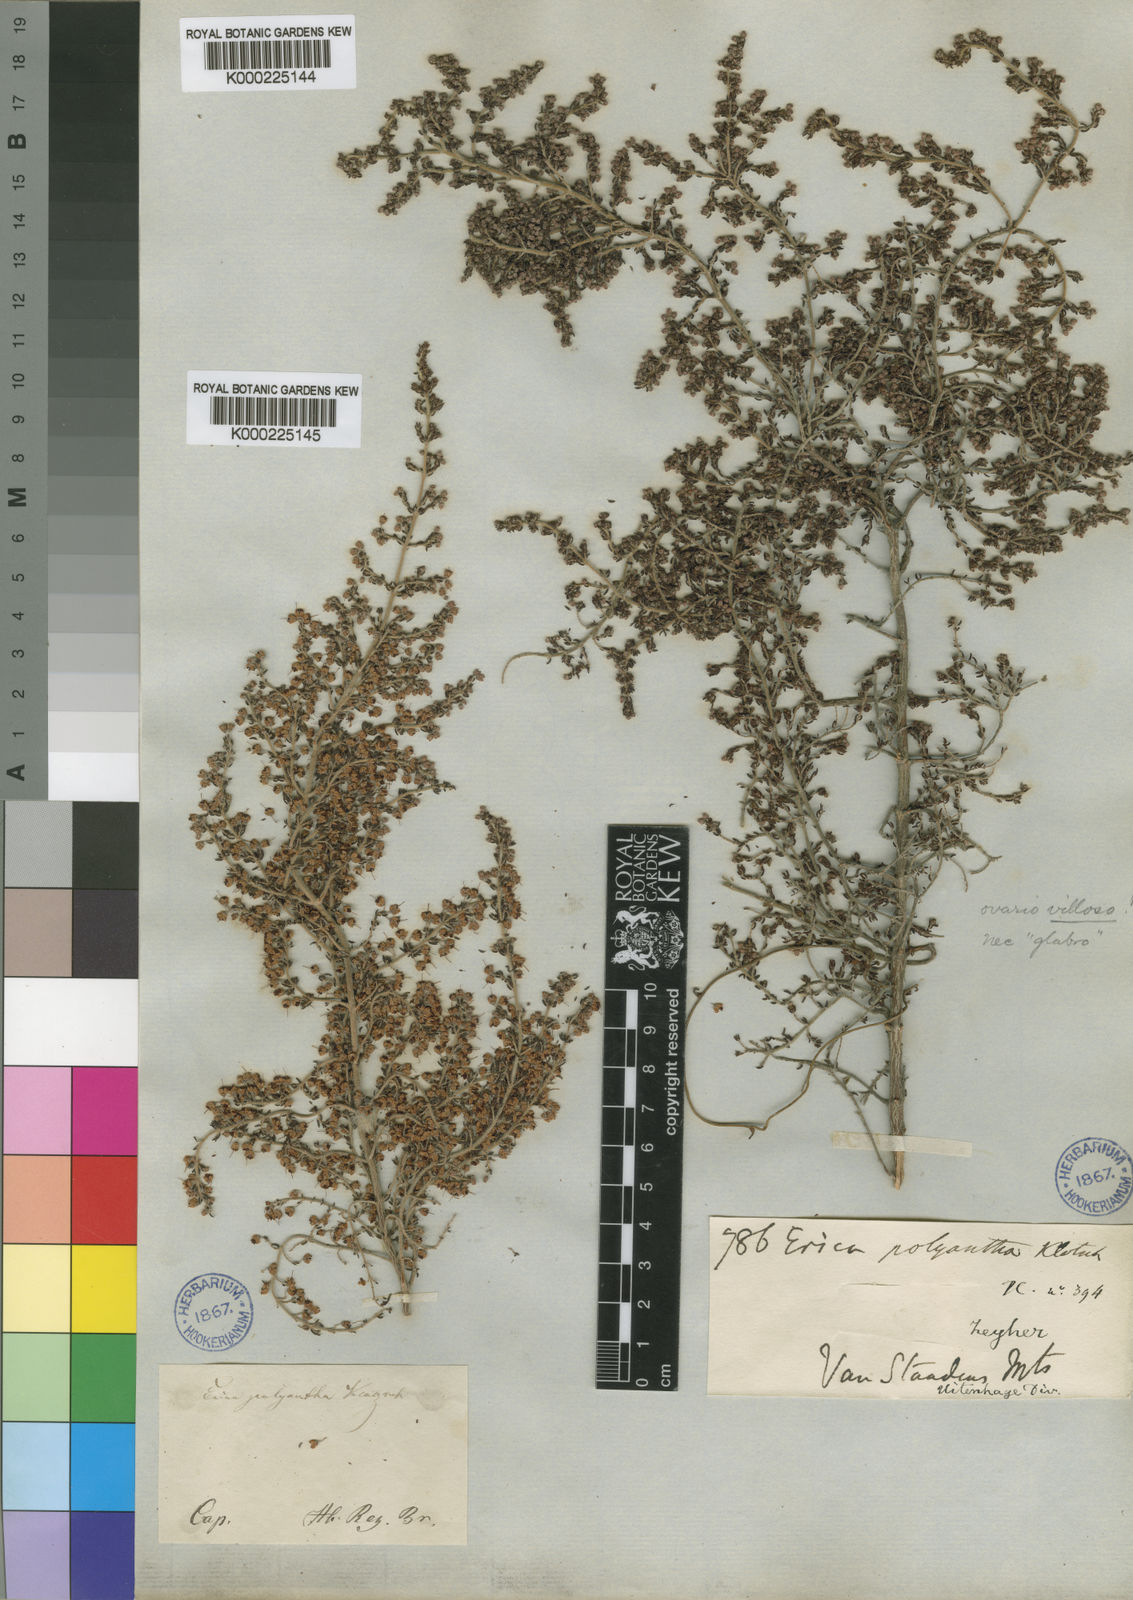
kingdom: Plantae
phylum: Tracheophyta
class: Magnoliopsida
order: Ericales
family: Ericaceae
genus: Erica
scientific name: Erica chamissonis
